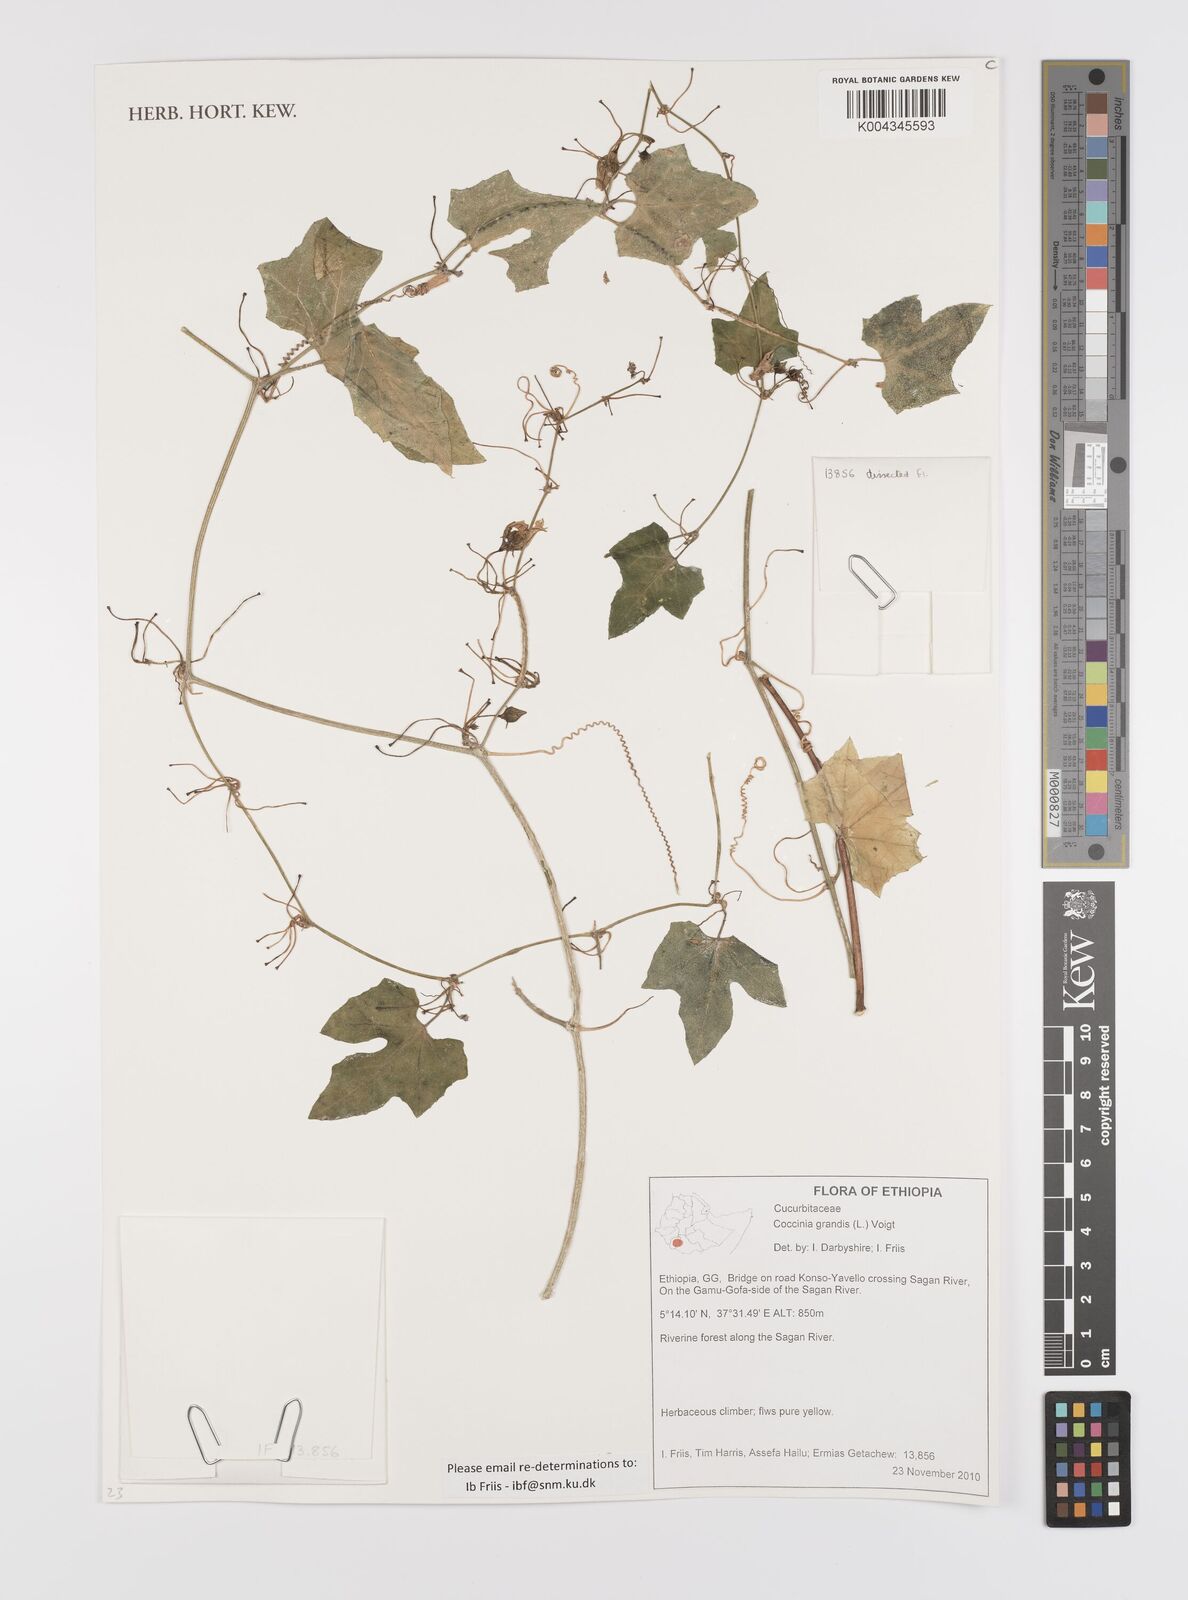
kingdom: Plantae
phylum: Tracheophyta
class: Magnoliopsida
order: Cucurbitales
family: Cucurbitaceae
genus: Coccinia
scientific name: Coccinia grandis
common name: Ivy gourd
